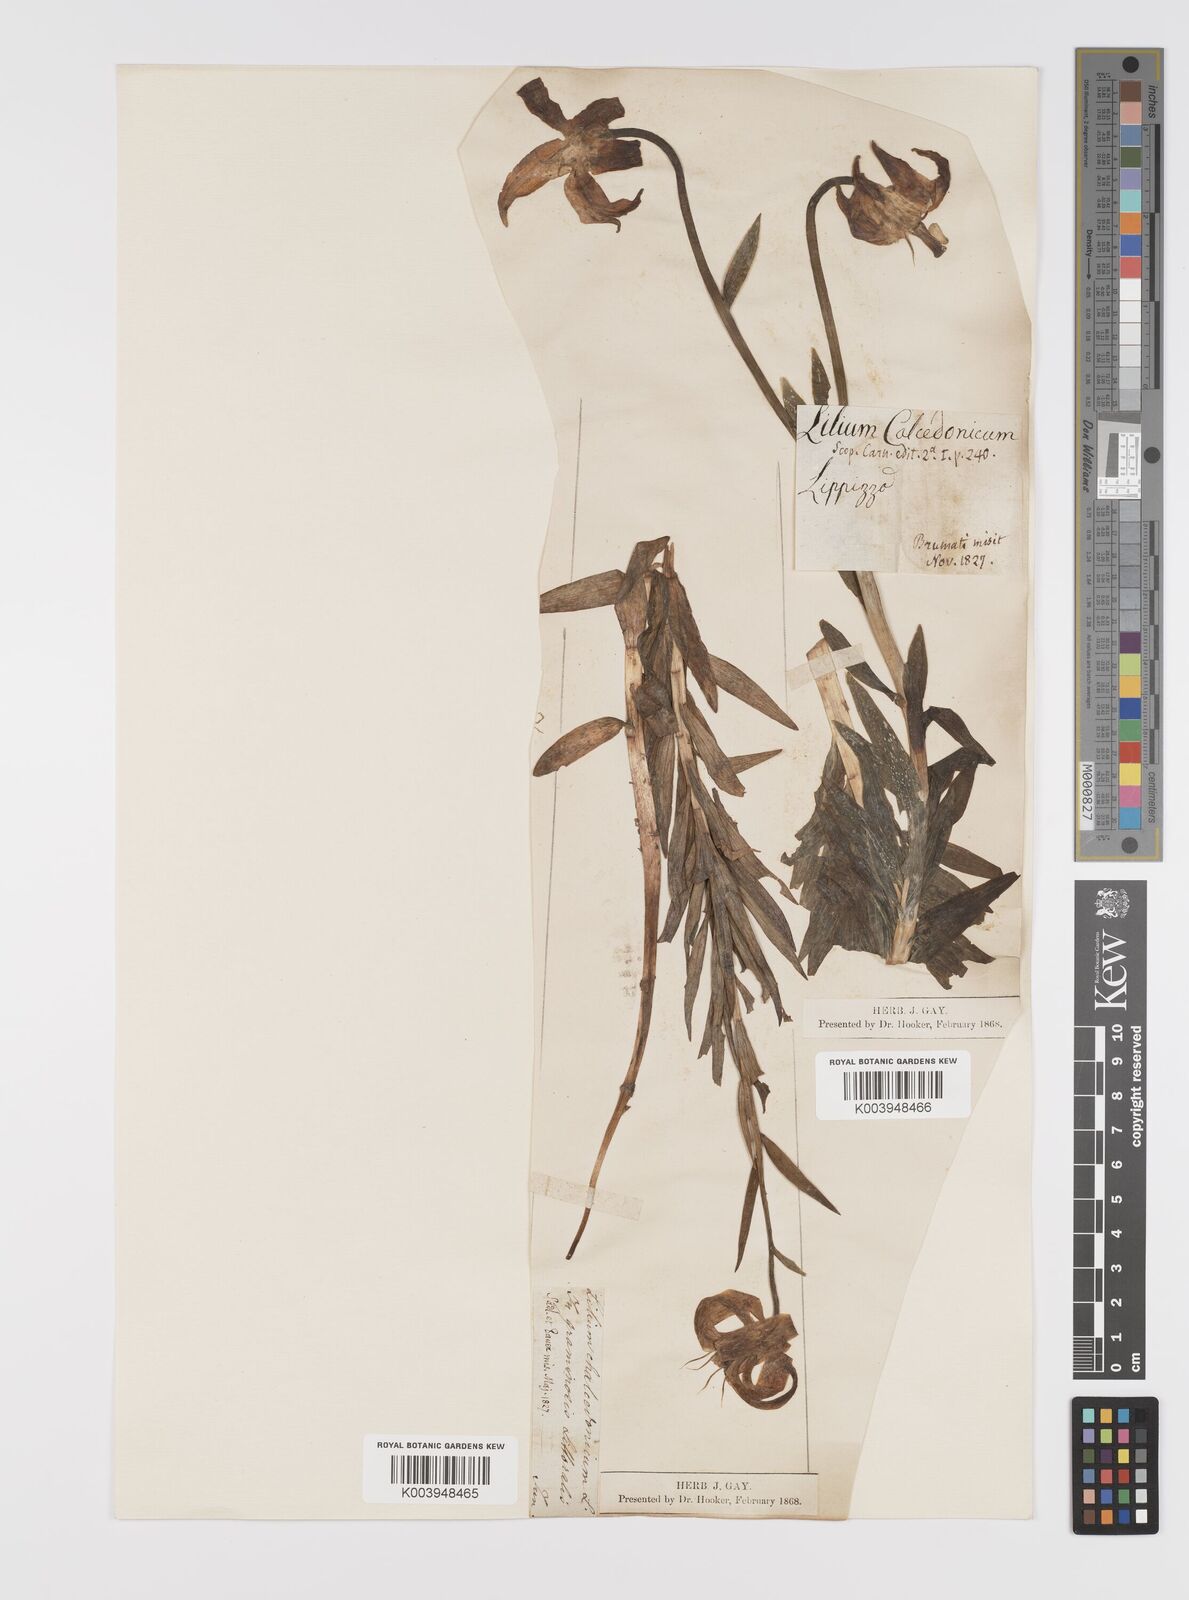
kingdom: Plantae
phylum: Tracheophyta
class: Liliopsida
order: Liliales
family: Liliaceae
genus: Lilium
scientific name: Lilium
